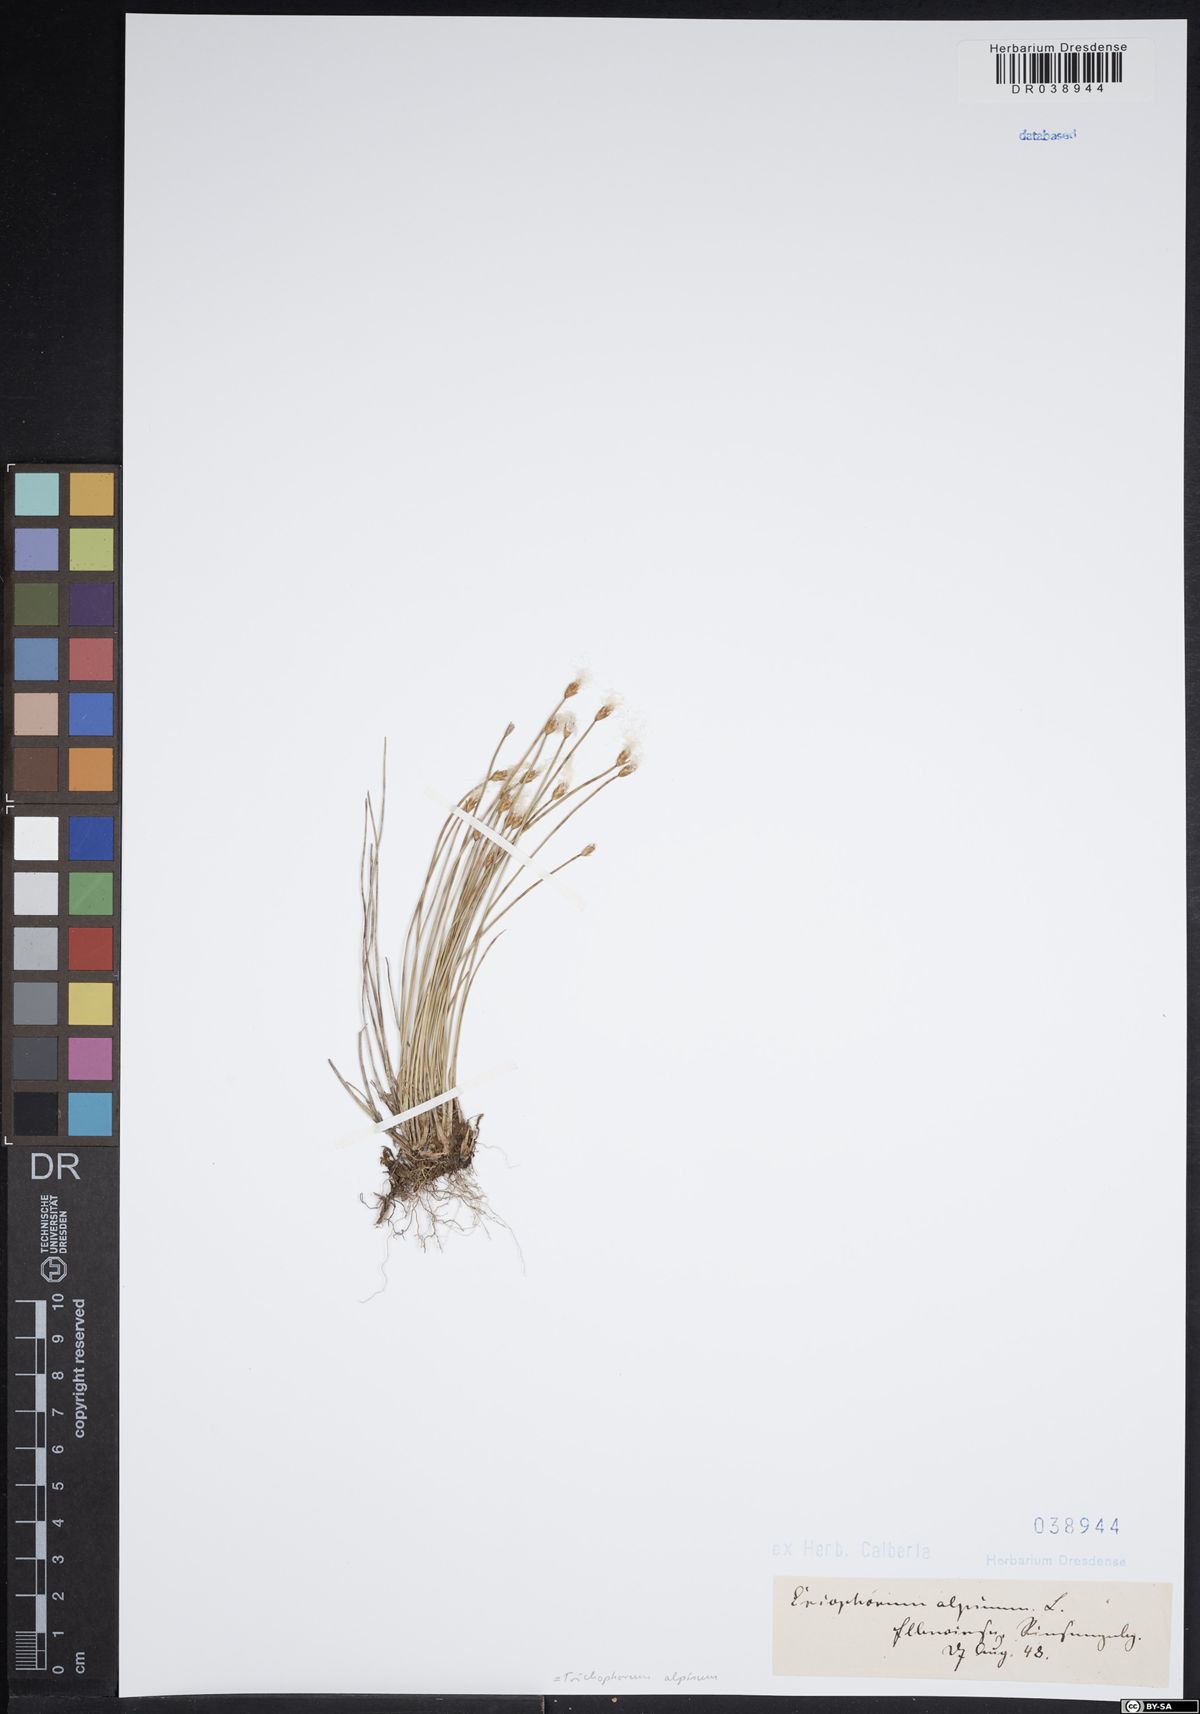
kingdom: Plantae
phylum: Tracheophyta
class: Liliopsida
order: Poales
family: Cyperaceae
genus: Trichophorum
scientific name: Trichophorum alpinum
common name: Alpine bulrush
